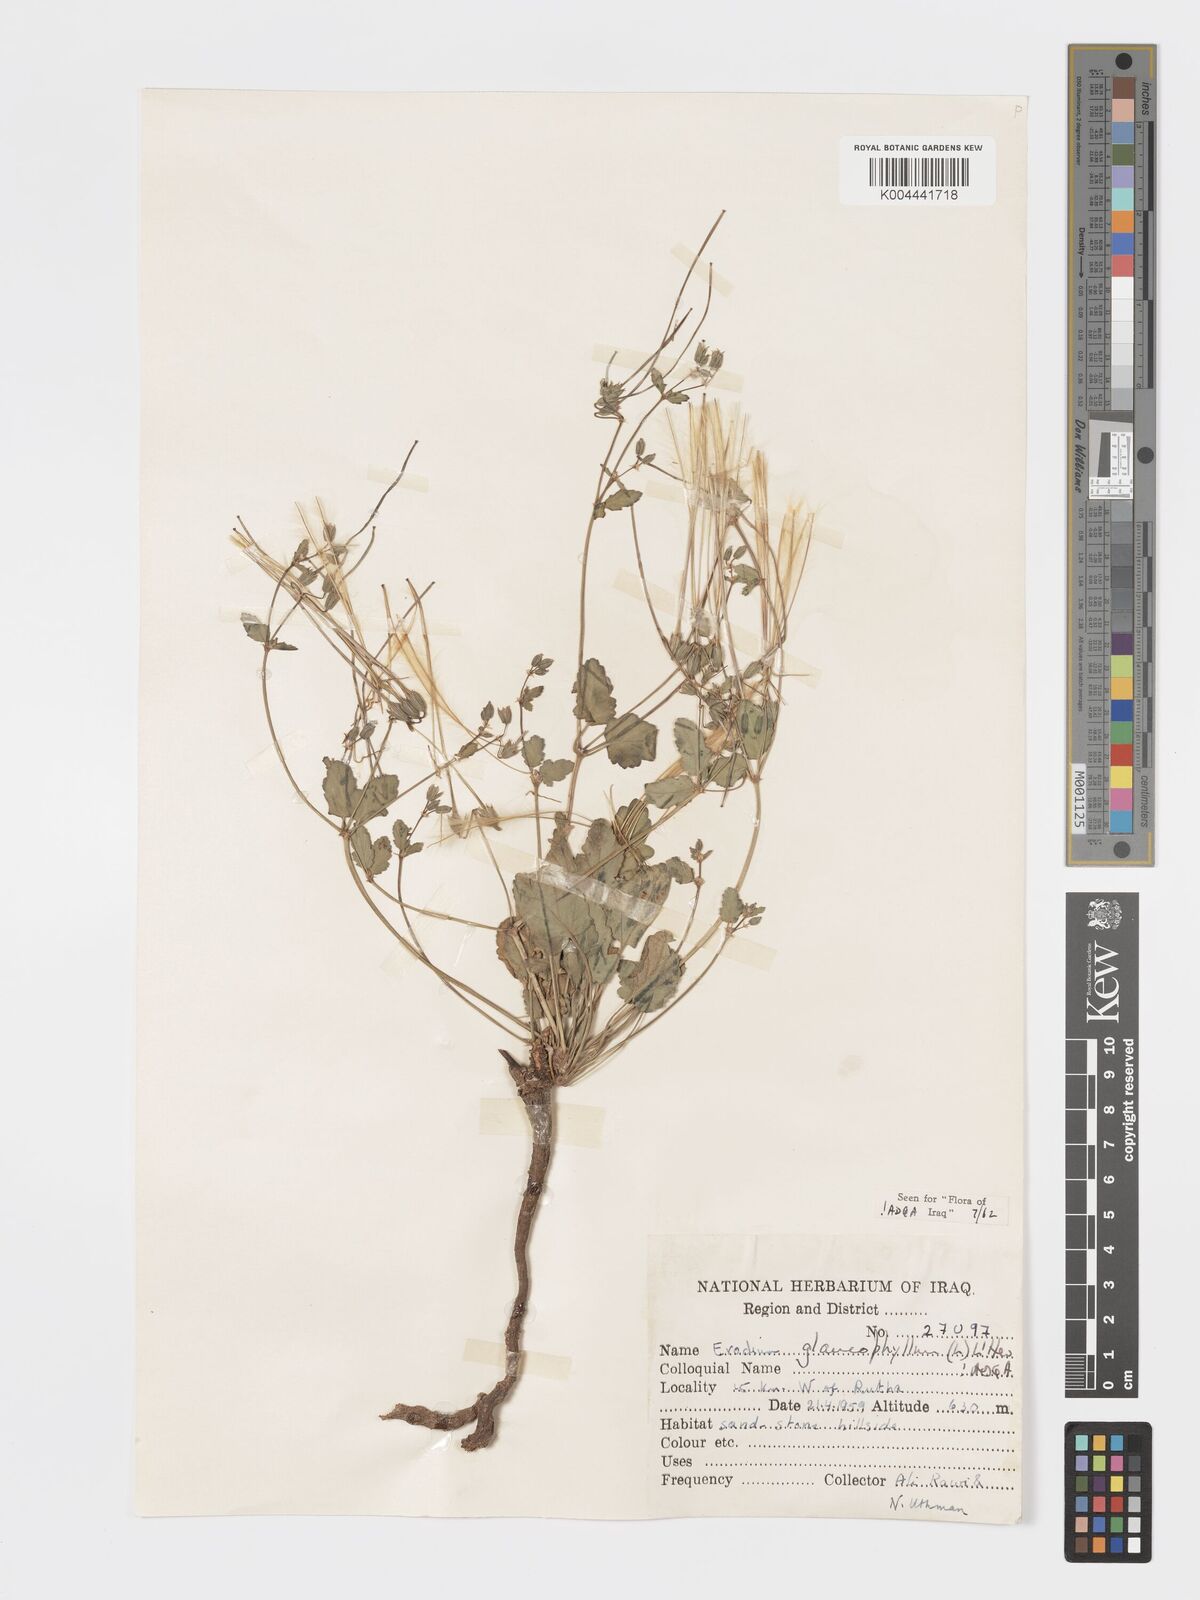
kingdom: Plantae
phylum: Tracheophyta
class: Magnoliopsida
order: Geraniales
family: Geraniaceae
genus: Erodium
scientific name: Erodium glaucophyllum
